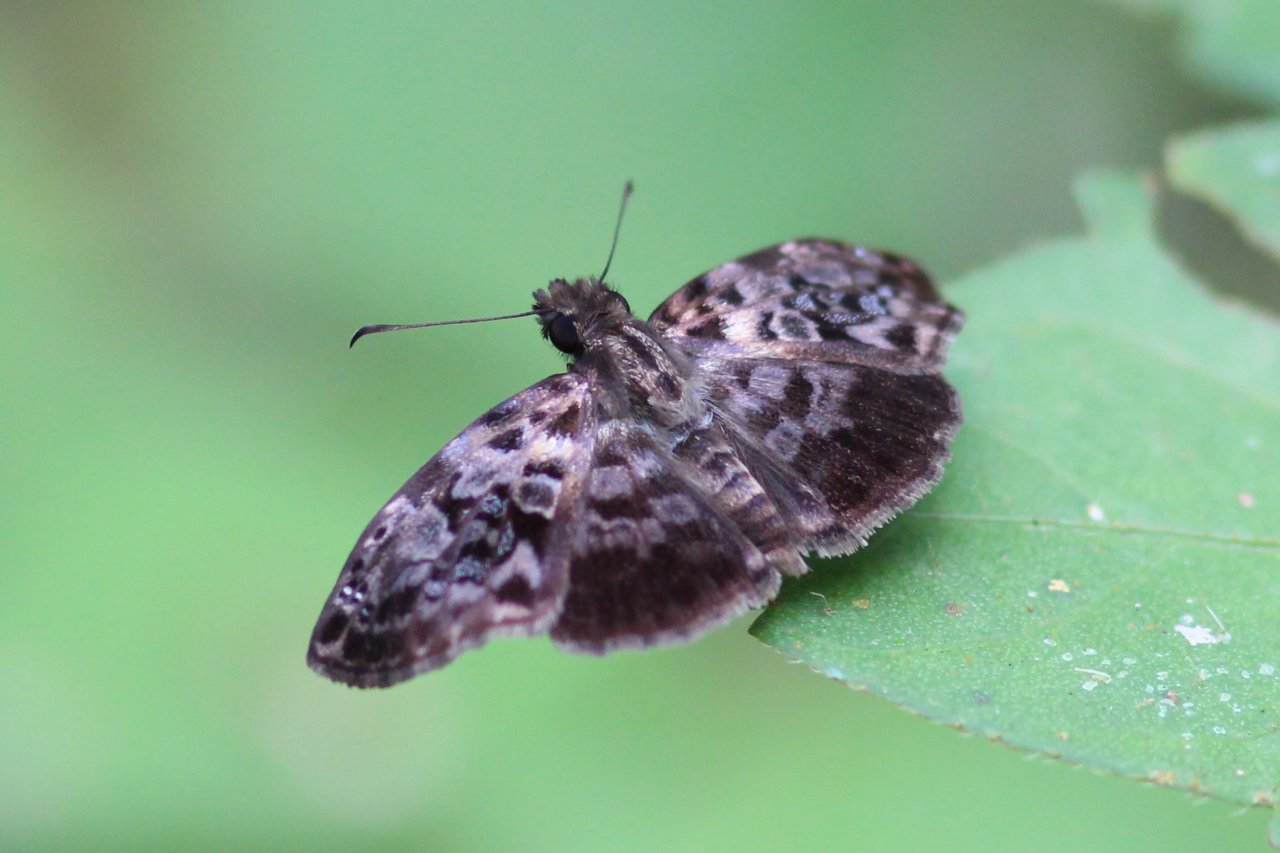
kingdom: Animalia
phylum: Arthropoda
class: Insecta
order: Lepidoptera
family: Hesperiidae
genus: Gorgythion
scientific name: Gorgythion begga
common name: Variegated Skipper
